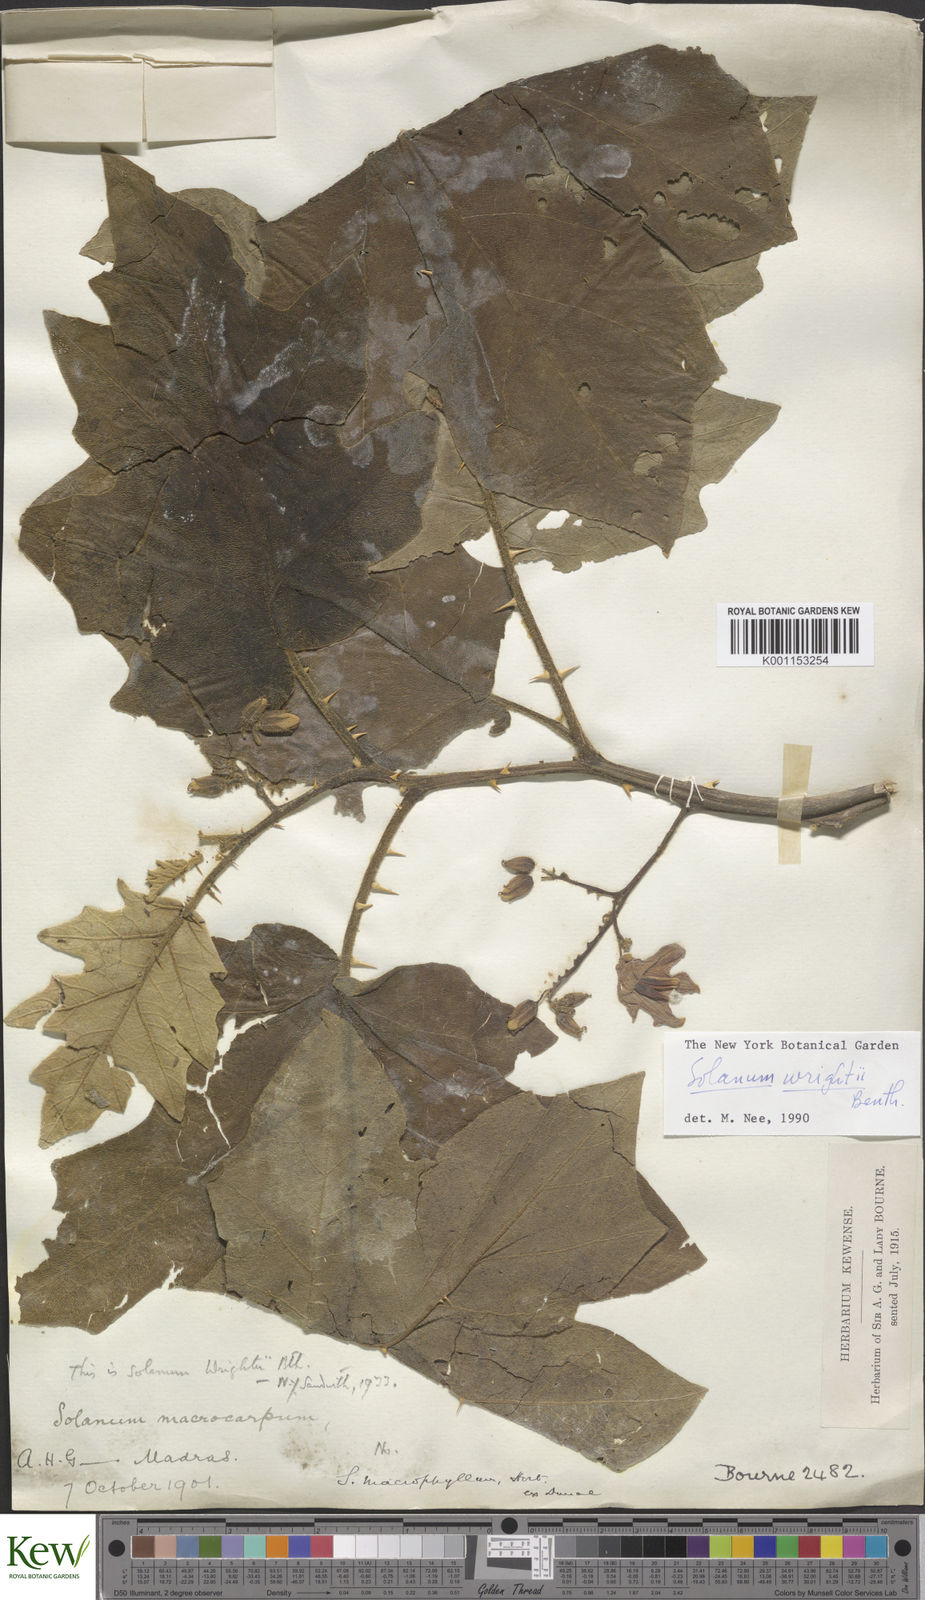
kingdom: Plantae
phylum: Tracheophyta
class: Magnoliopsida
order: Solanales
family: Solanaceae
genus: Solanum
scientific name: Solanum wrightii
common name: Brazilian potato-tree
